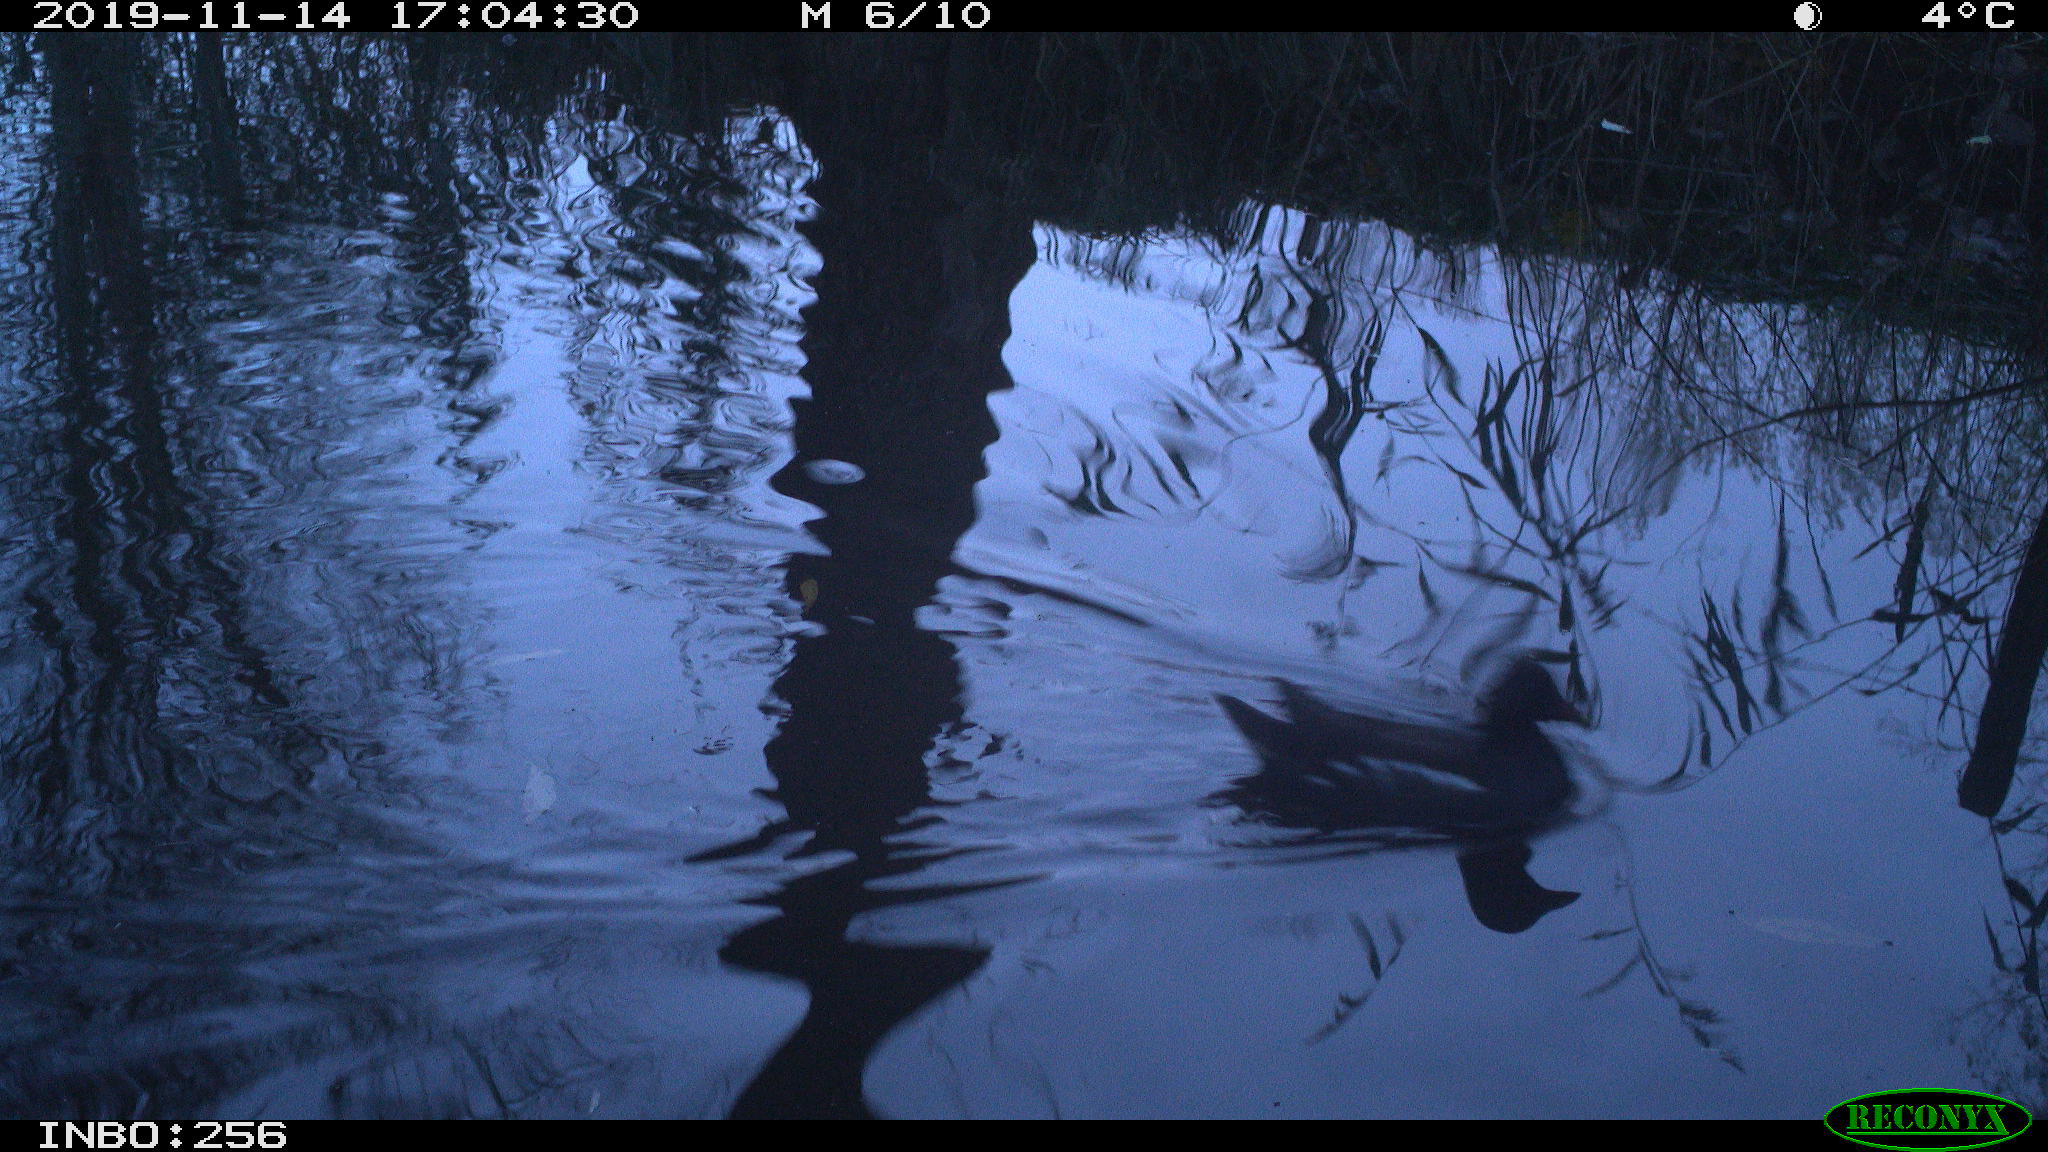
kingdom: Animalia
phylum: Chordata
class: Aves
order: Gruiformes
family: Rallidae
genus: Gallinula
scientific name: Gallinula chloropus
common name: Common moorhen
